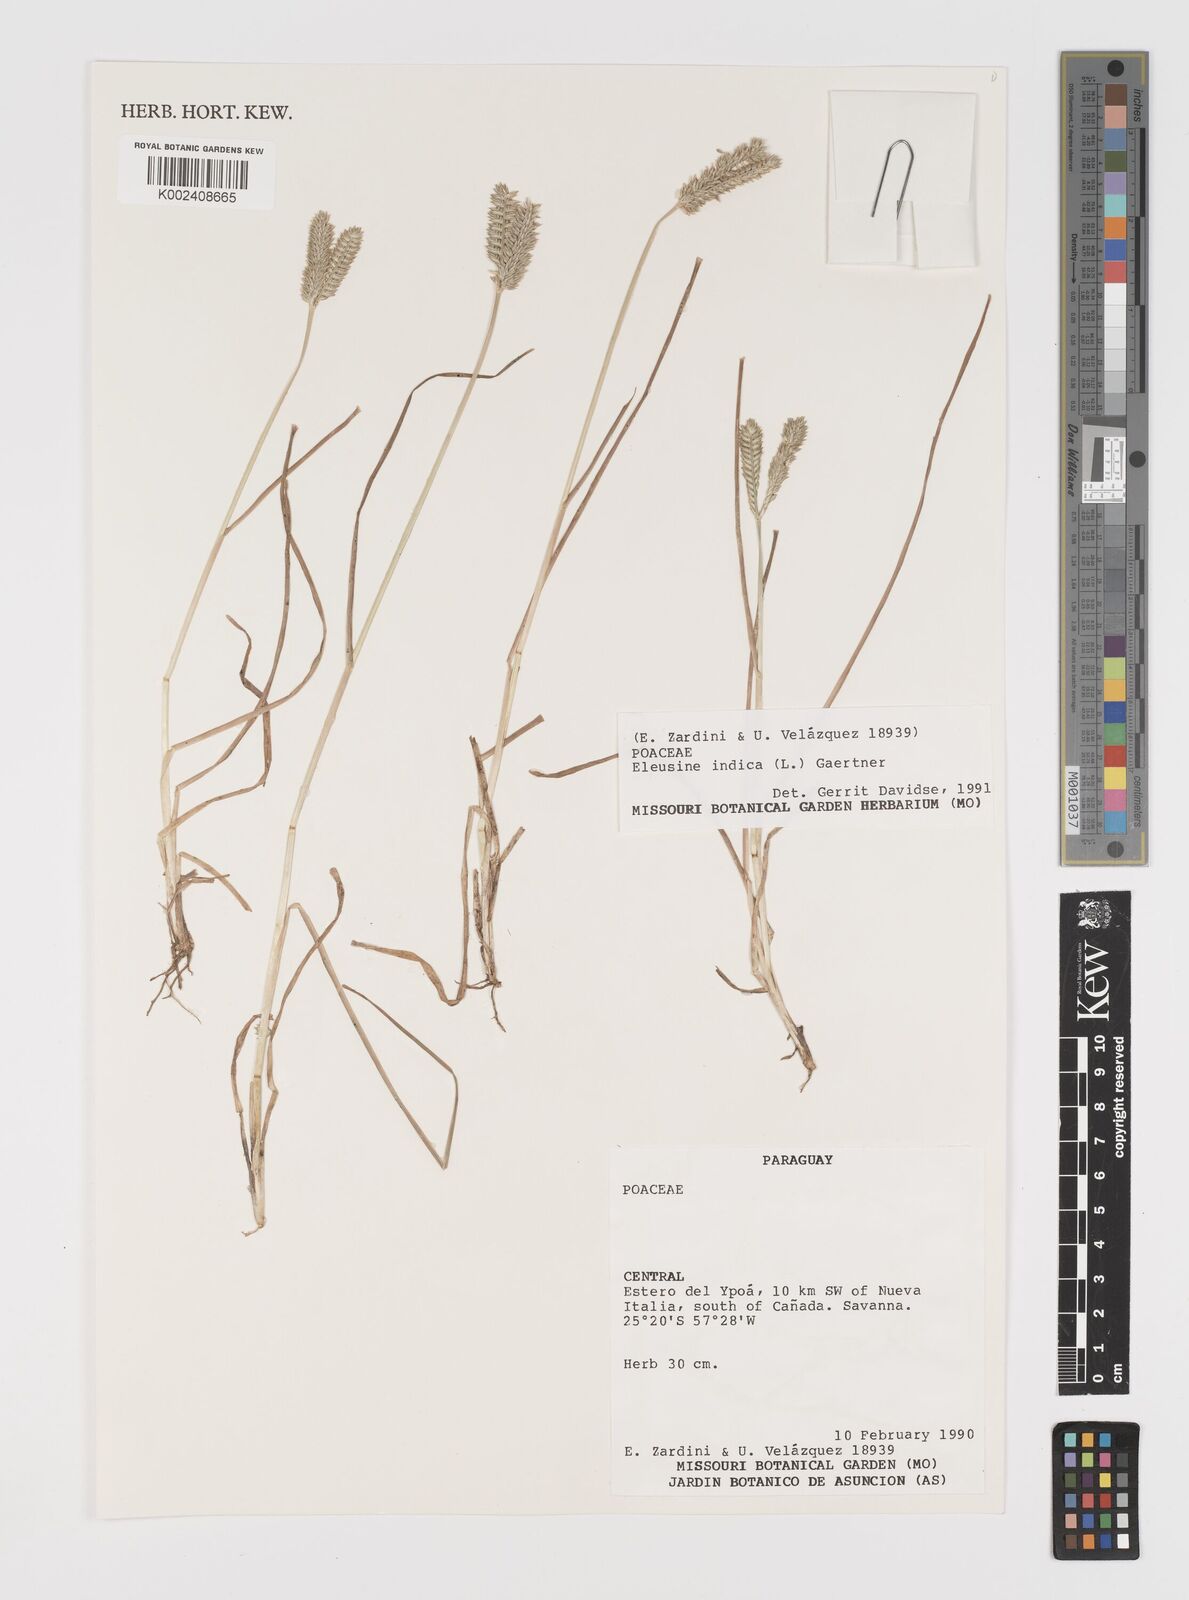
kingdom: Plantae
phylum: Tracheophyta
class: Liliopsida
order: Poales
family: Poaceae
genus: Eleusine
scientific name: Eleusine tristachya
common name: American yard-grass
